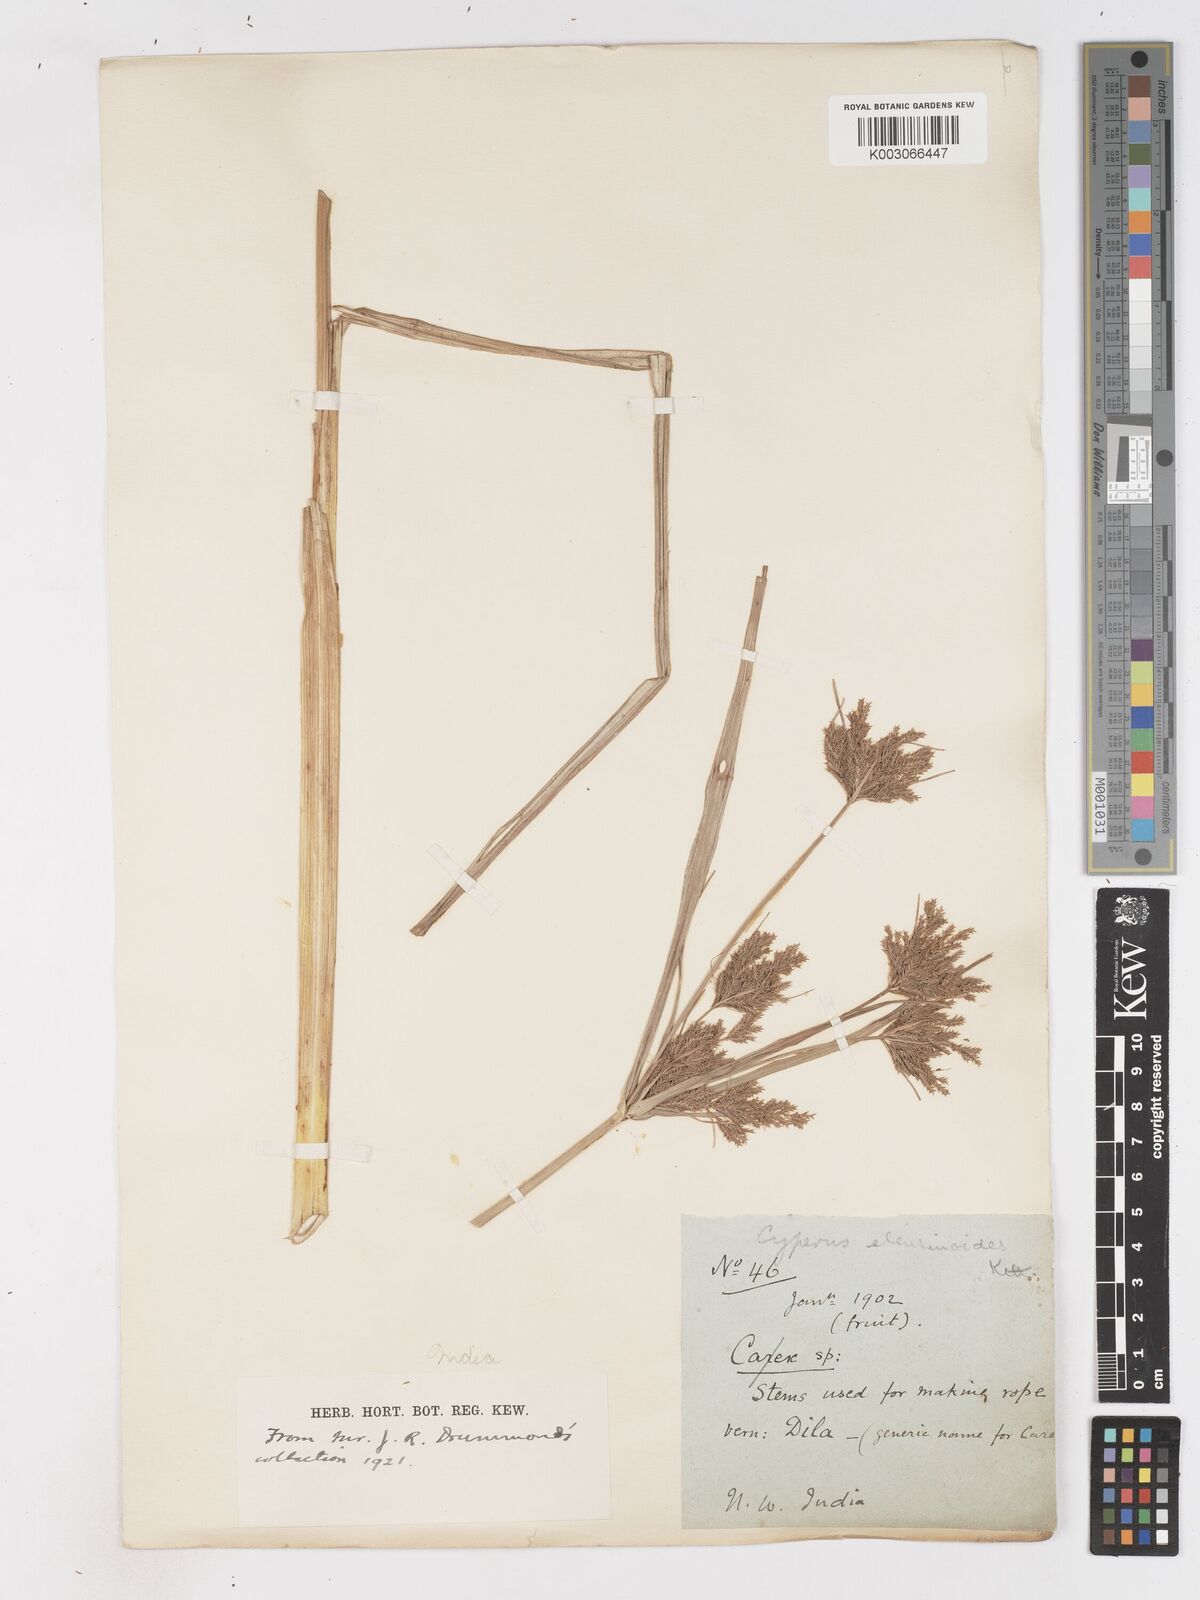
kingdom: Plantae
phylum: Tracheophyta
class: Liliopsida
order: Poales
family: Cyperaceae
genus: Cyperus
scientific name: Cyperus nutans
